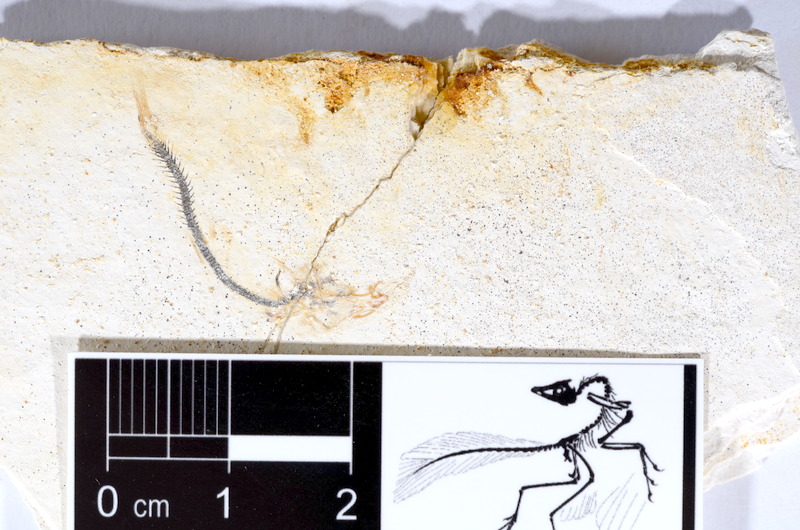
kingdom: Animalia
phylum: Chordata
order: Salmoniformes
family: Orthogonikleithridae
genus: Orthogonikleithrus
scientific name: Orthogonikleithrus hoelli
